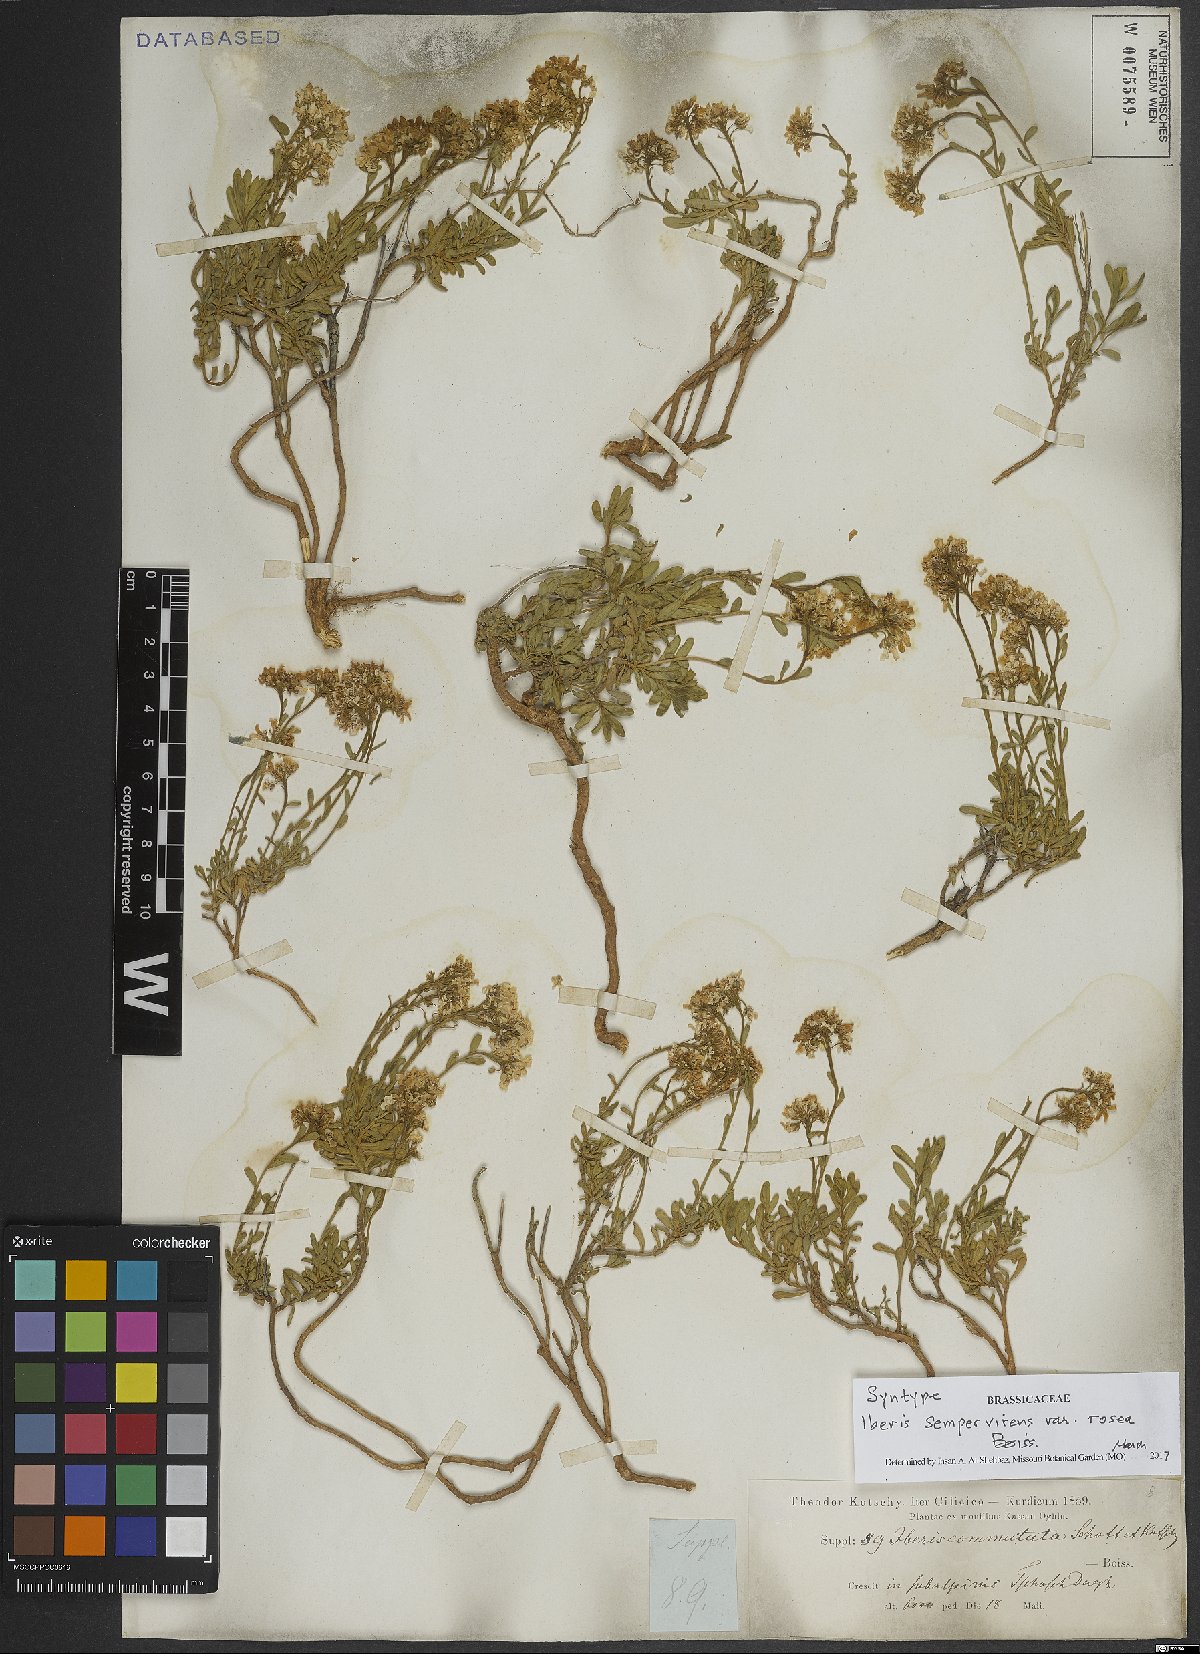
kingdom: Plantae
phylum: Tracheophyta
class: Magnoliopsida
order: Brassicales
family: Brassicaceae
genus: Iberis
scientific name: Iberis sempervirens
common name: Evergreen candytuft
